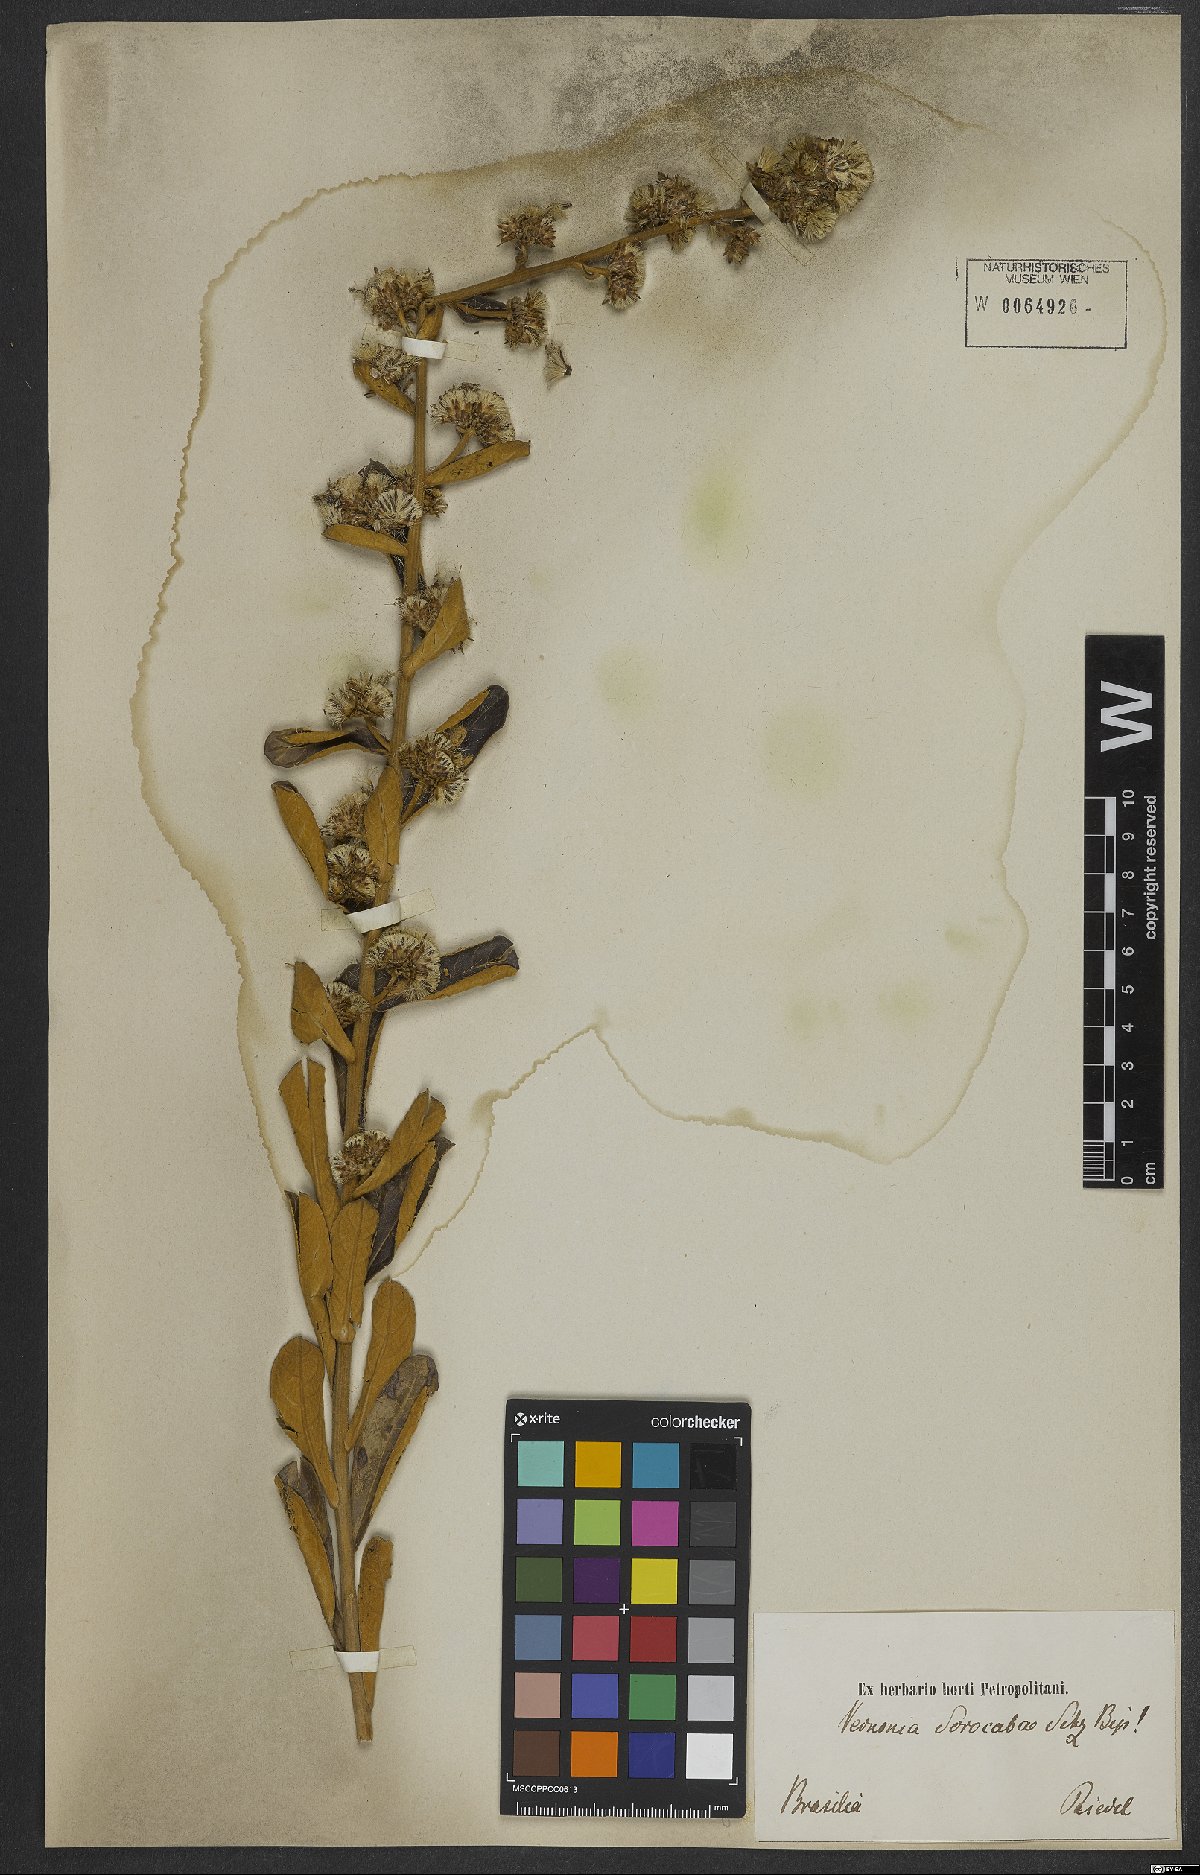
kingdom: Plantae
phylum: Tracheophyta
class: Magnoliopsida
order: Asterales
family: Asteraceae
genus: Vernonanthura
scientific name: Vernonanthura oligactoides
